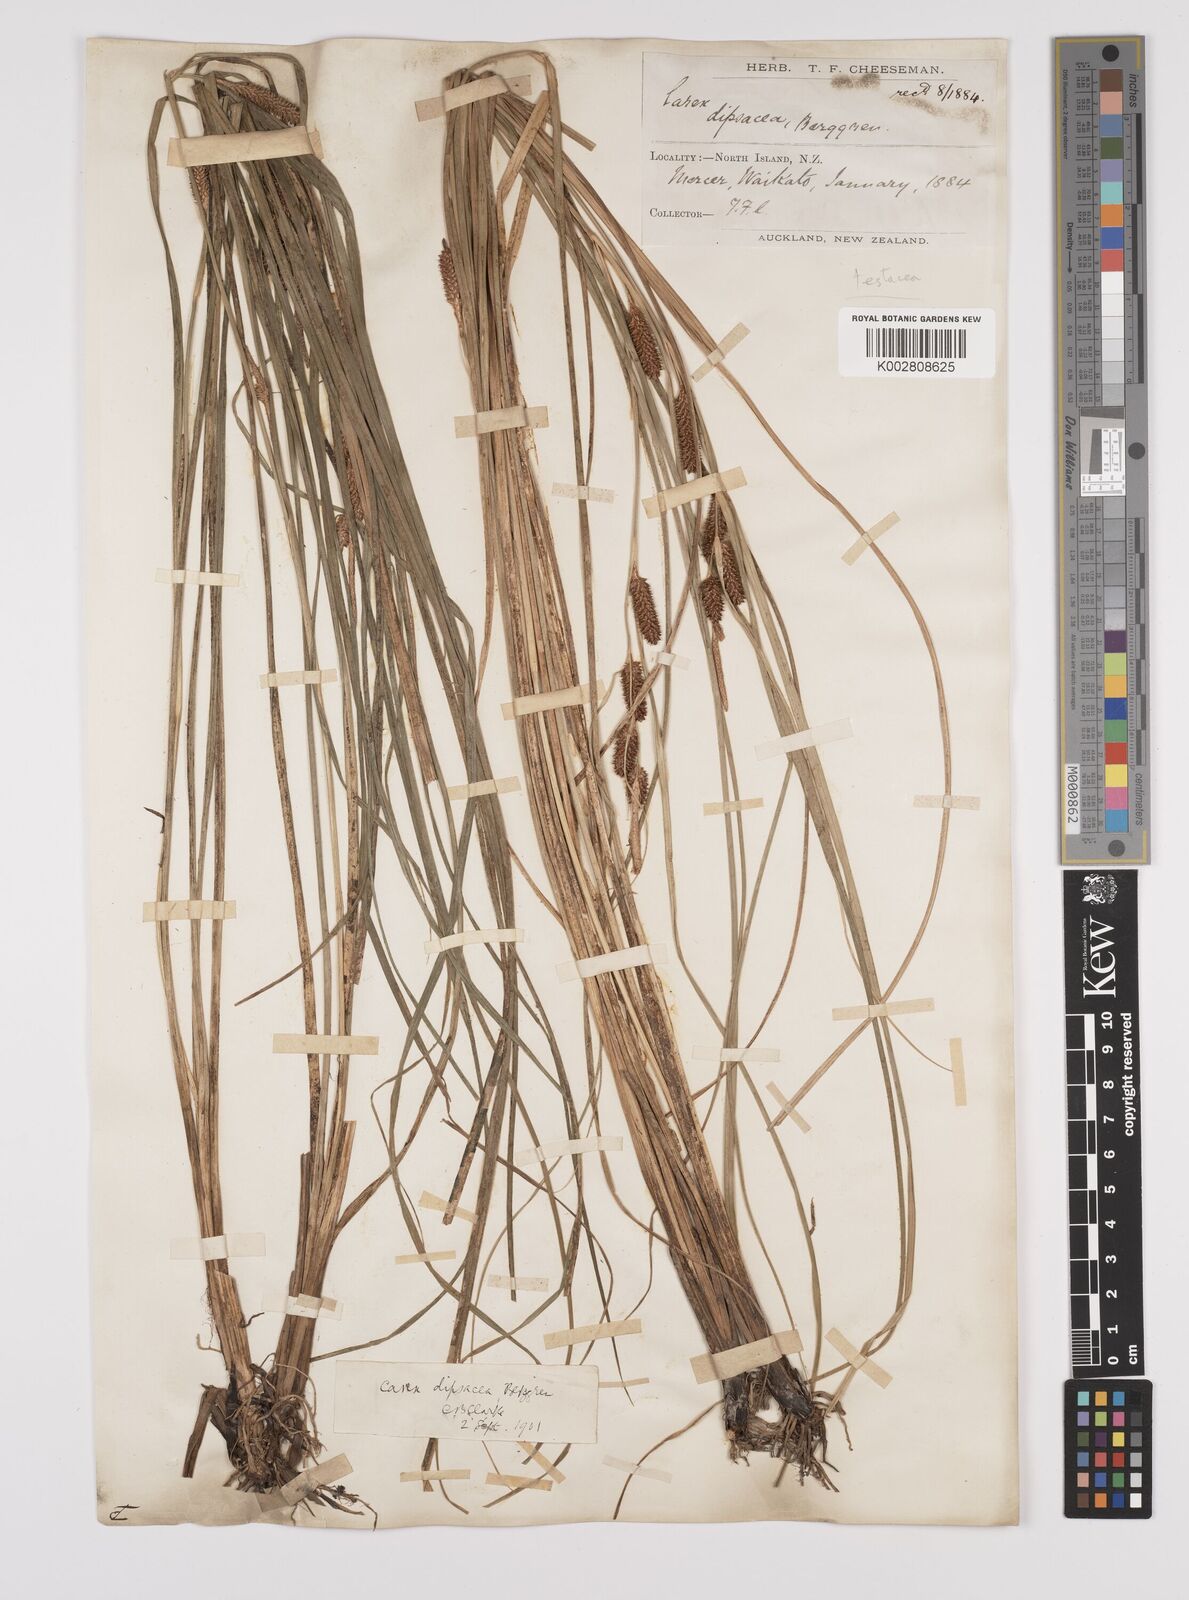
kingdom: Plantae
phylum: Tracheophyta
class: Liliopsida
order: Poales
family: Cyperaceae
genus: Carex
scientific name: Carex dipsacea
